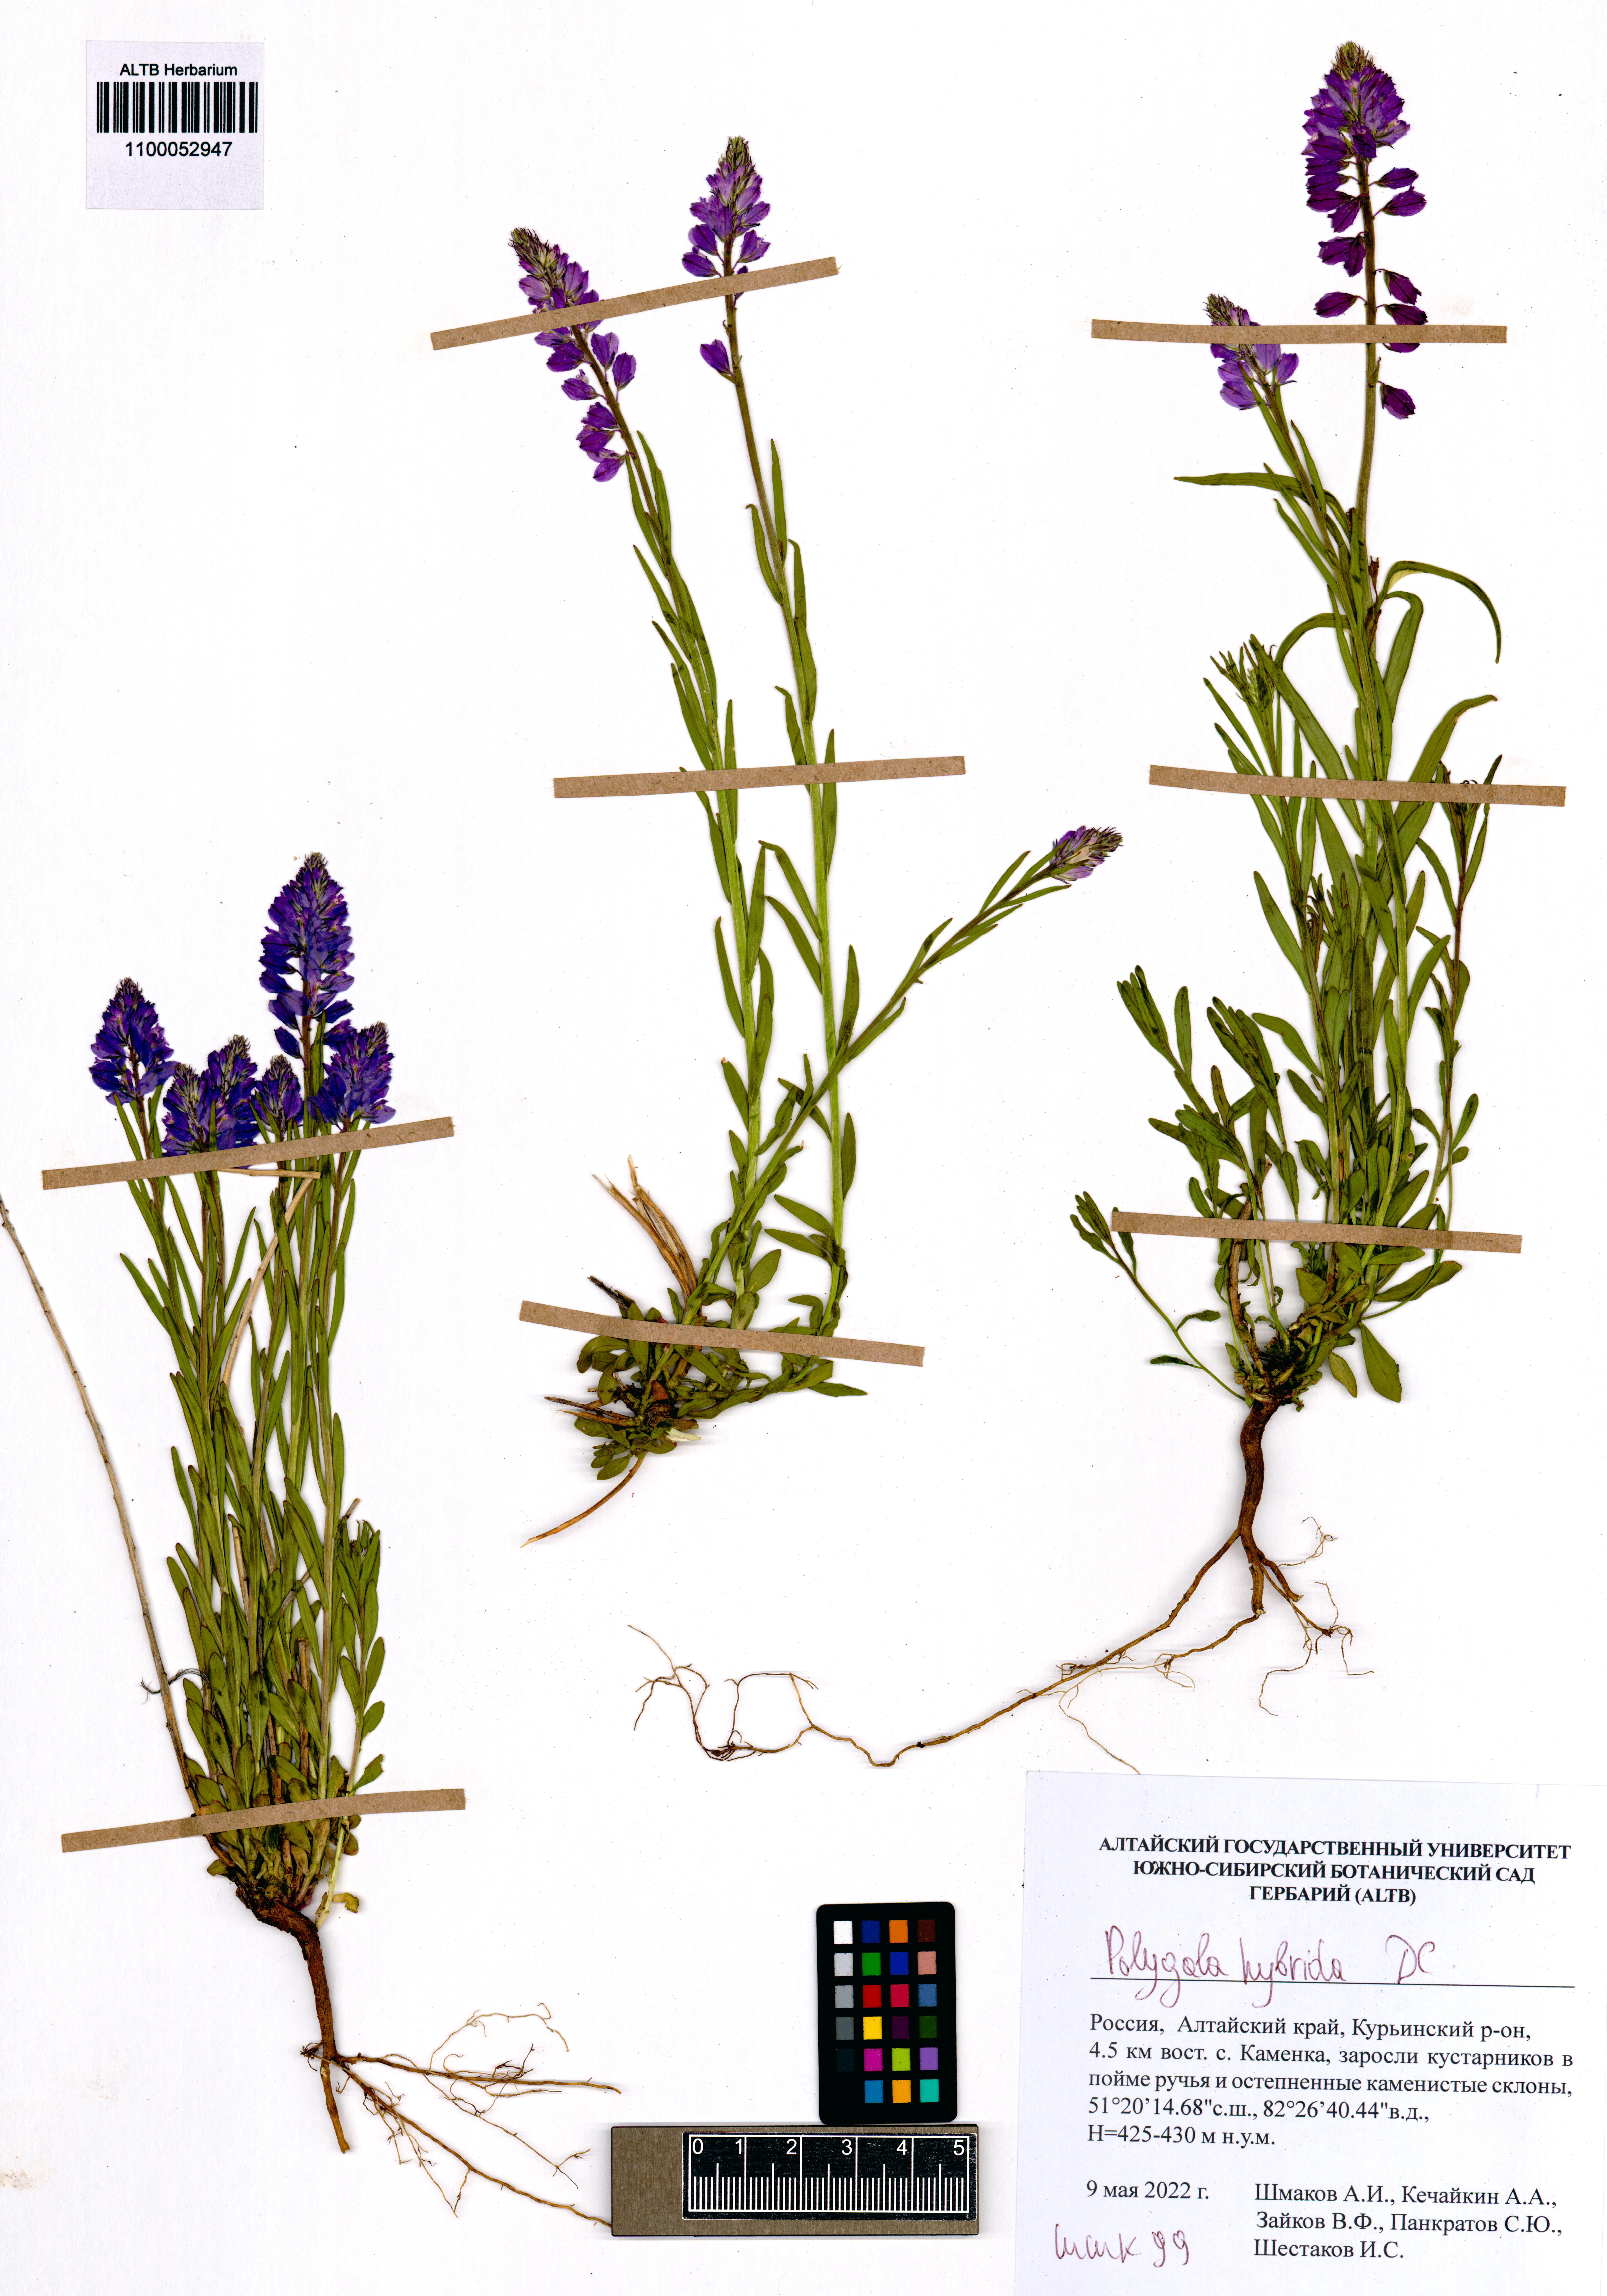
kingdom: Plantae
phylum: Tracheophyta
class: Magnoliopsida
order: Fabales
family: Polygalaceae
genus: Polygala
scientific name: Polygala comosa
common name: Tufted milkwort
